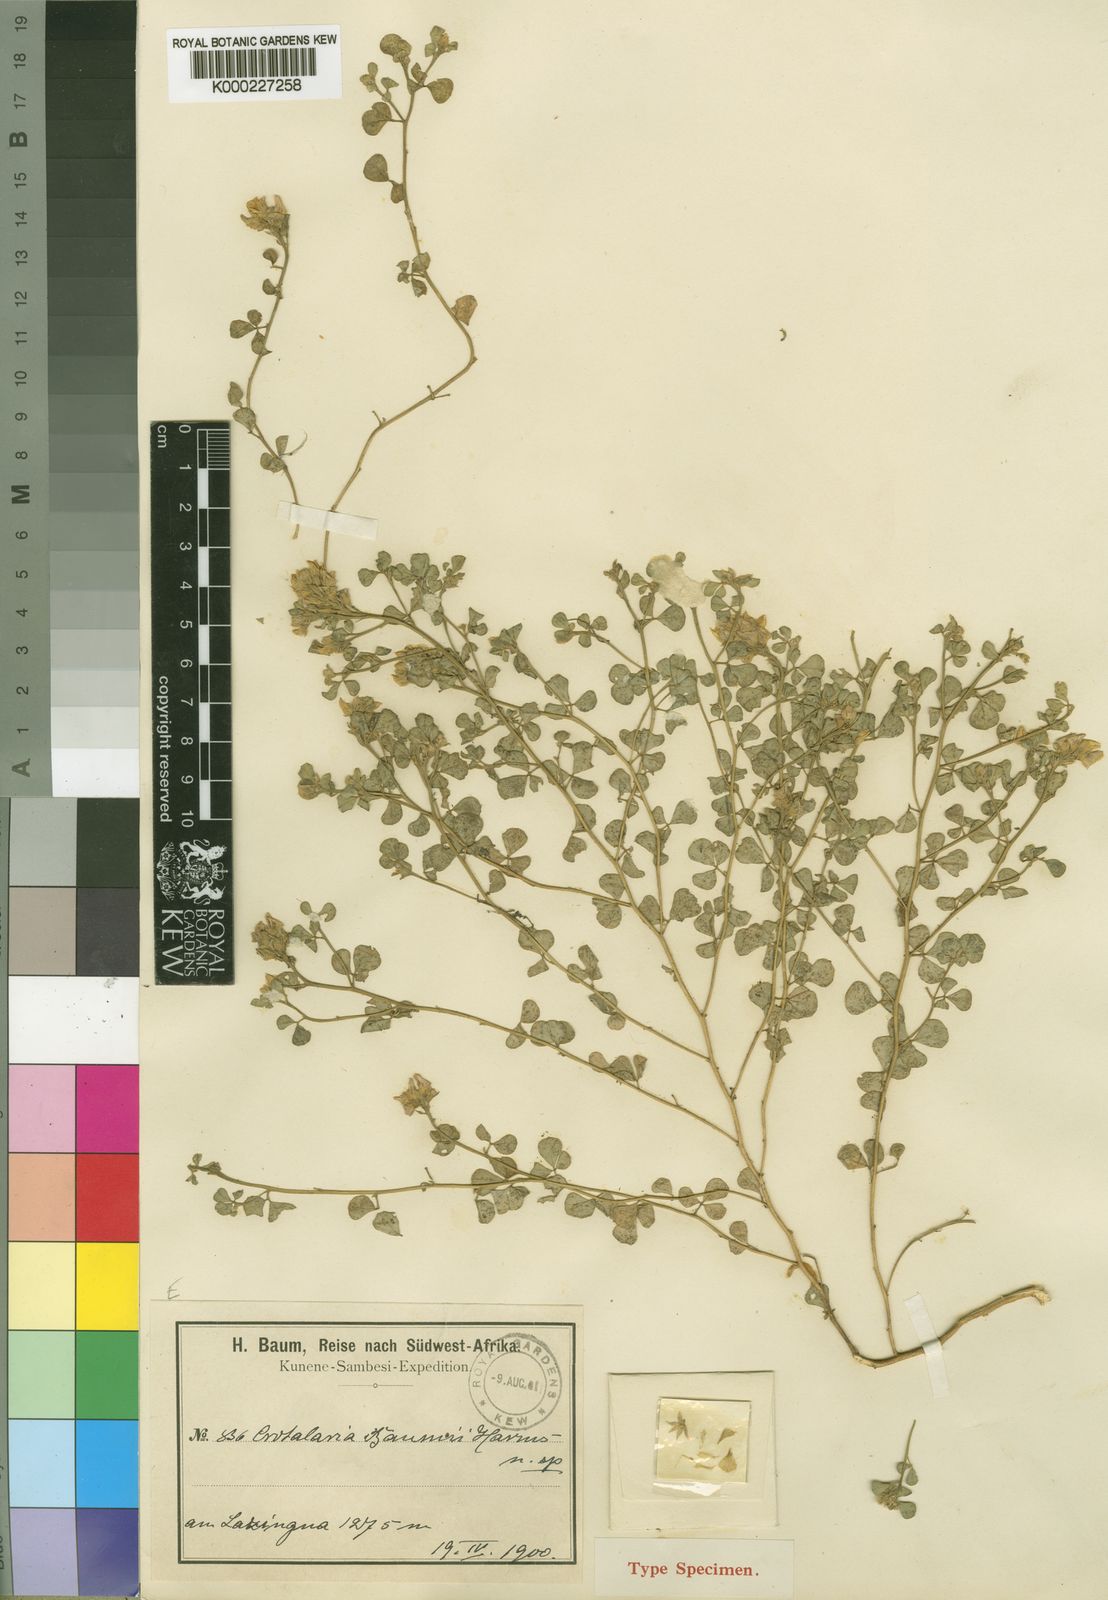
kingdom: Plantae
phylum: Tracheophyta
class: Magnoliopsida
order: Fabales
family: Fabaceae
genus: Crotalaria
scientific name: Crotalaria baumii
